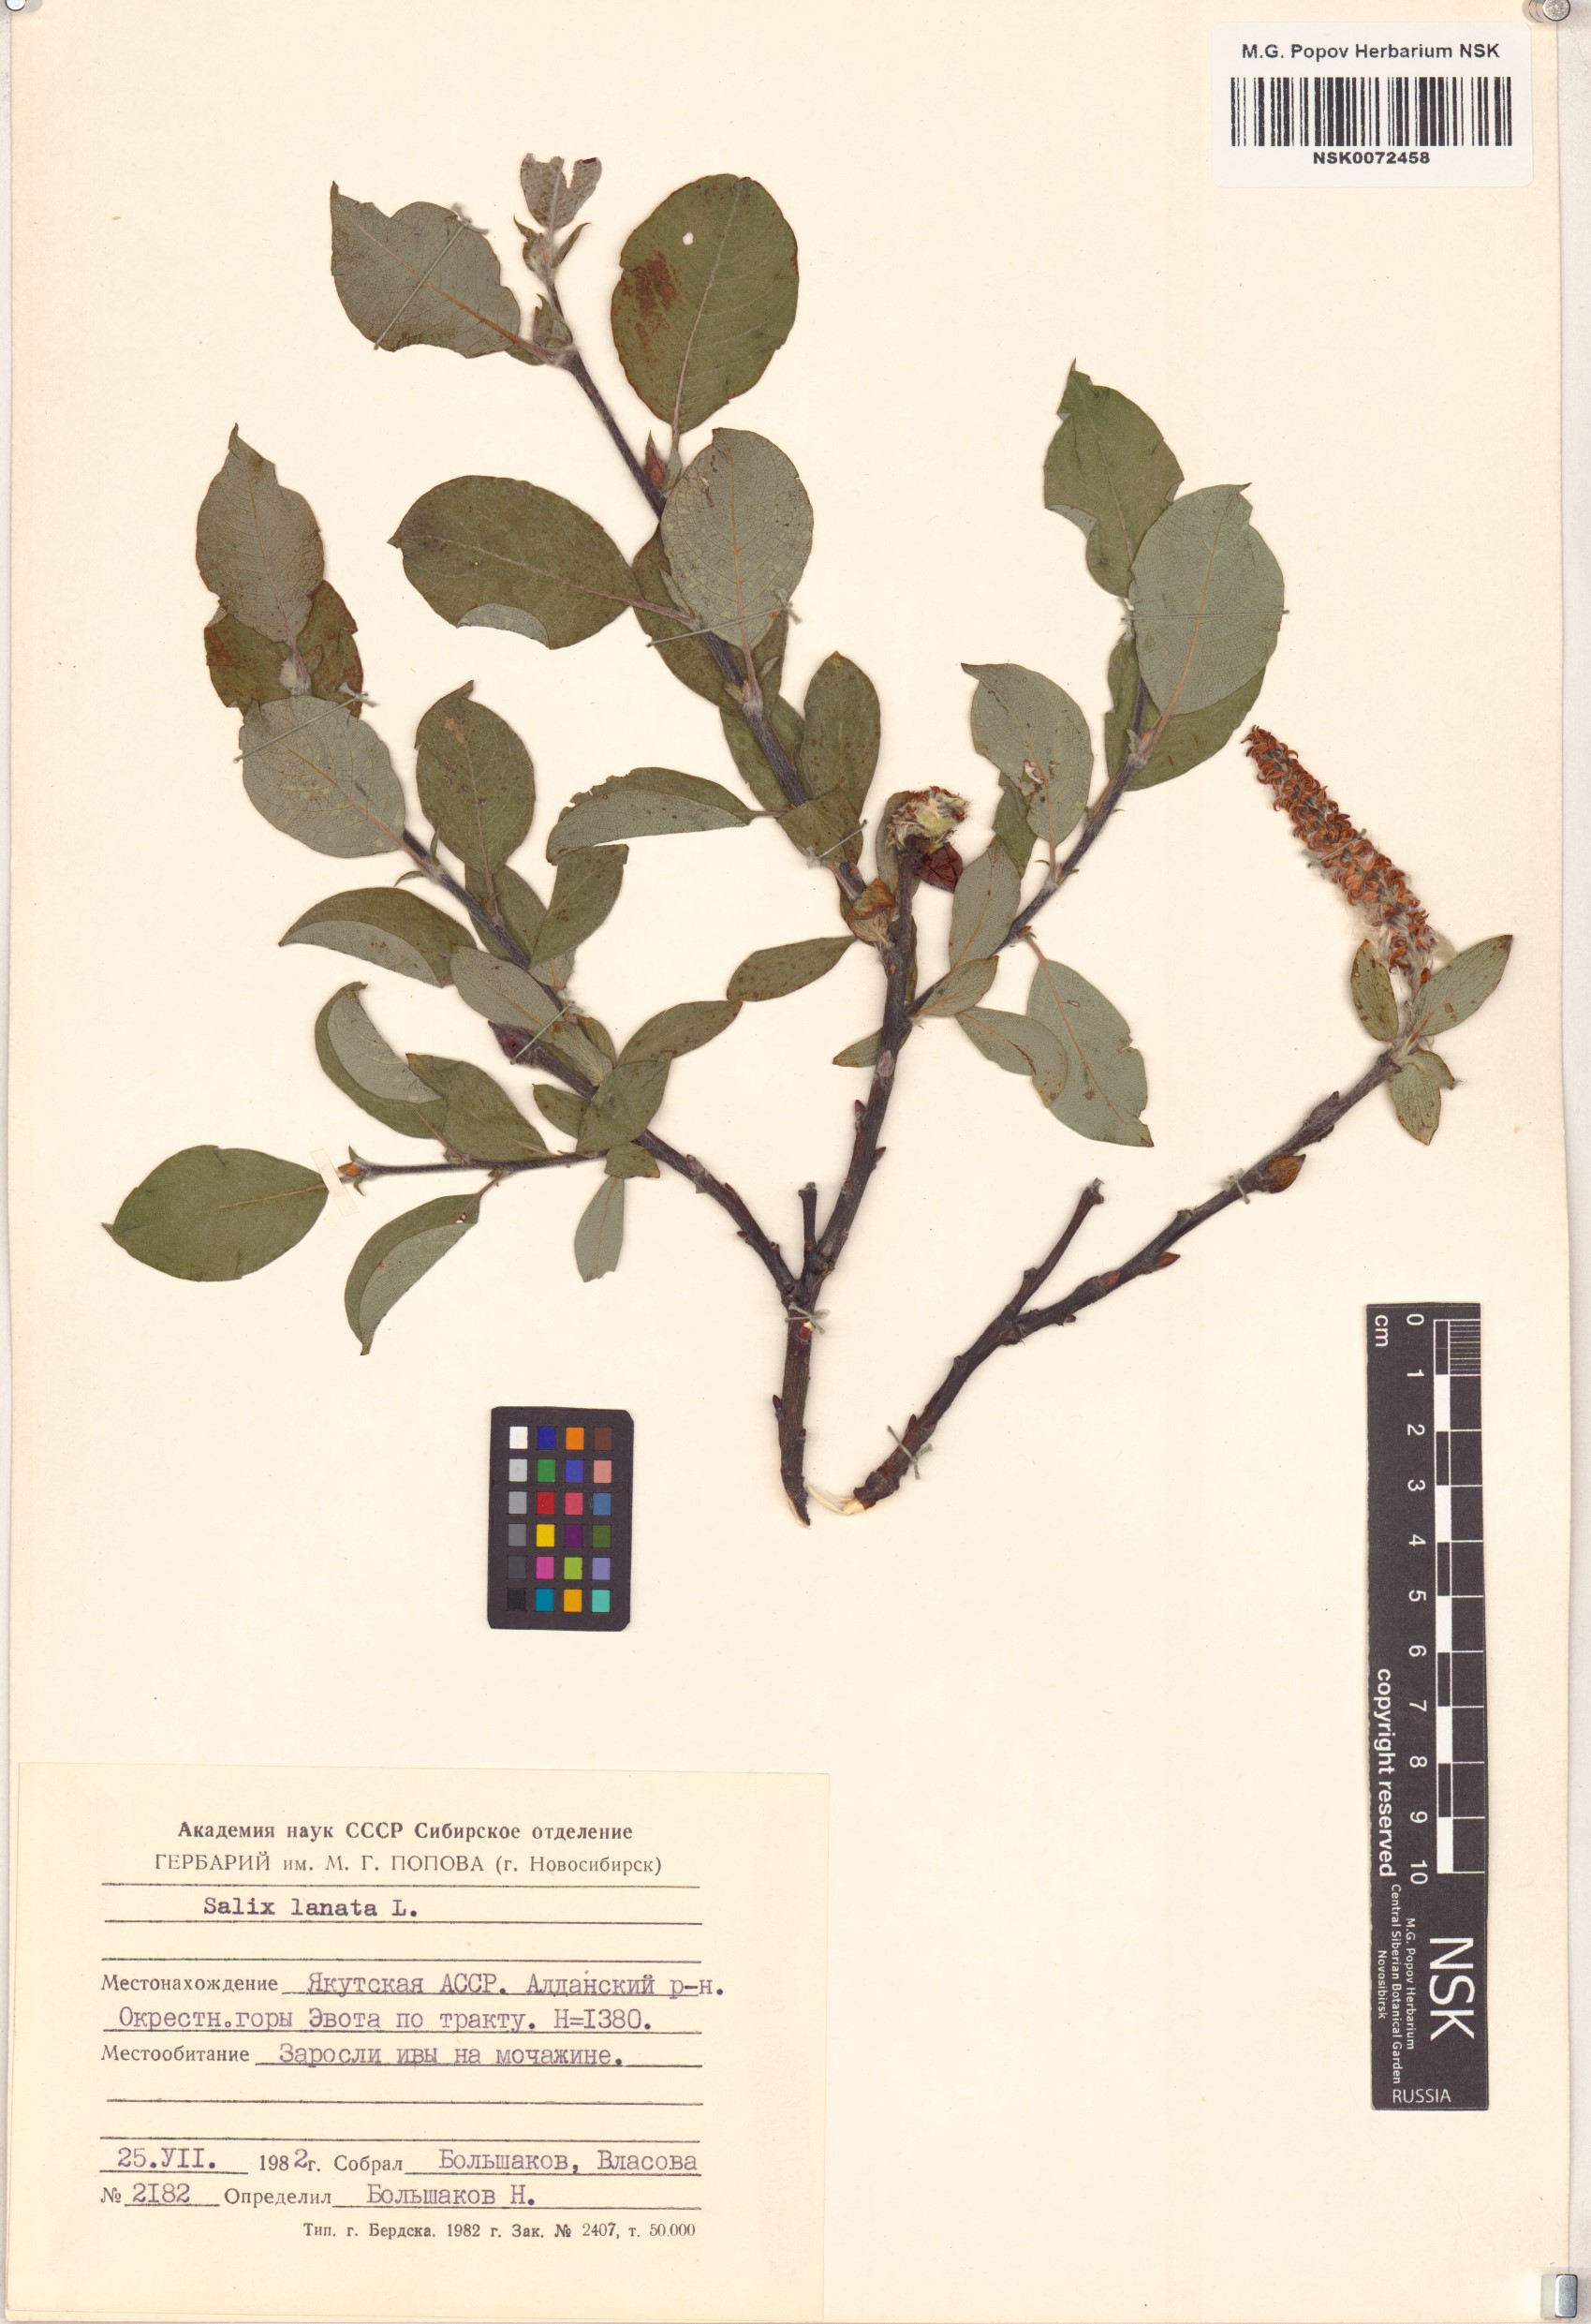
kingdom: Plantae
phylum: Tracheophyta
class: Magnoliopsida
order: Malpighiales
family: Salicaceae
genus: Salix
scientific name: Salix lanata
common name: Woolly willow
